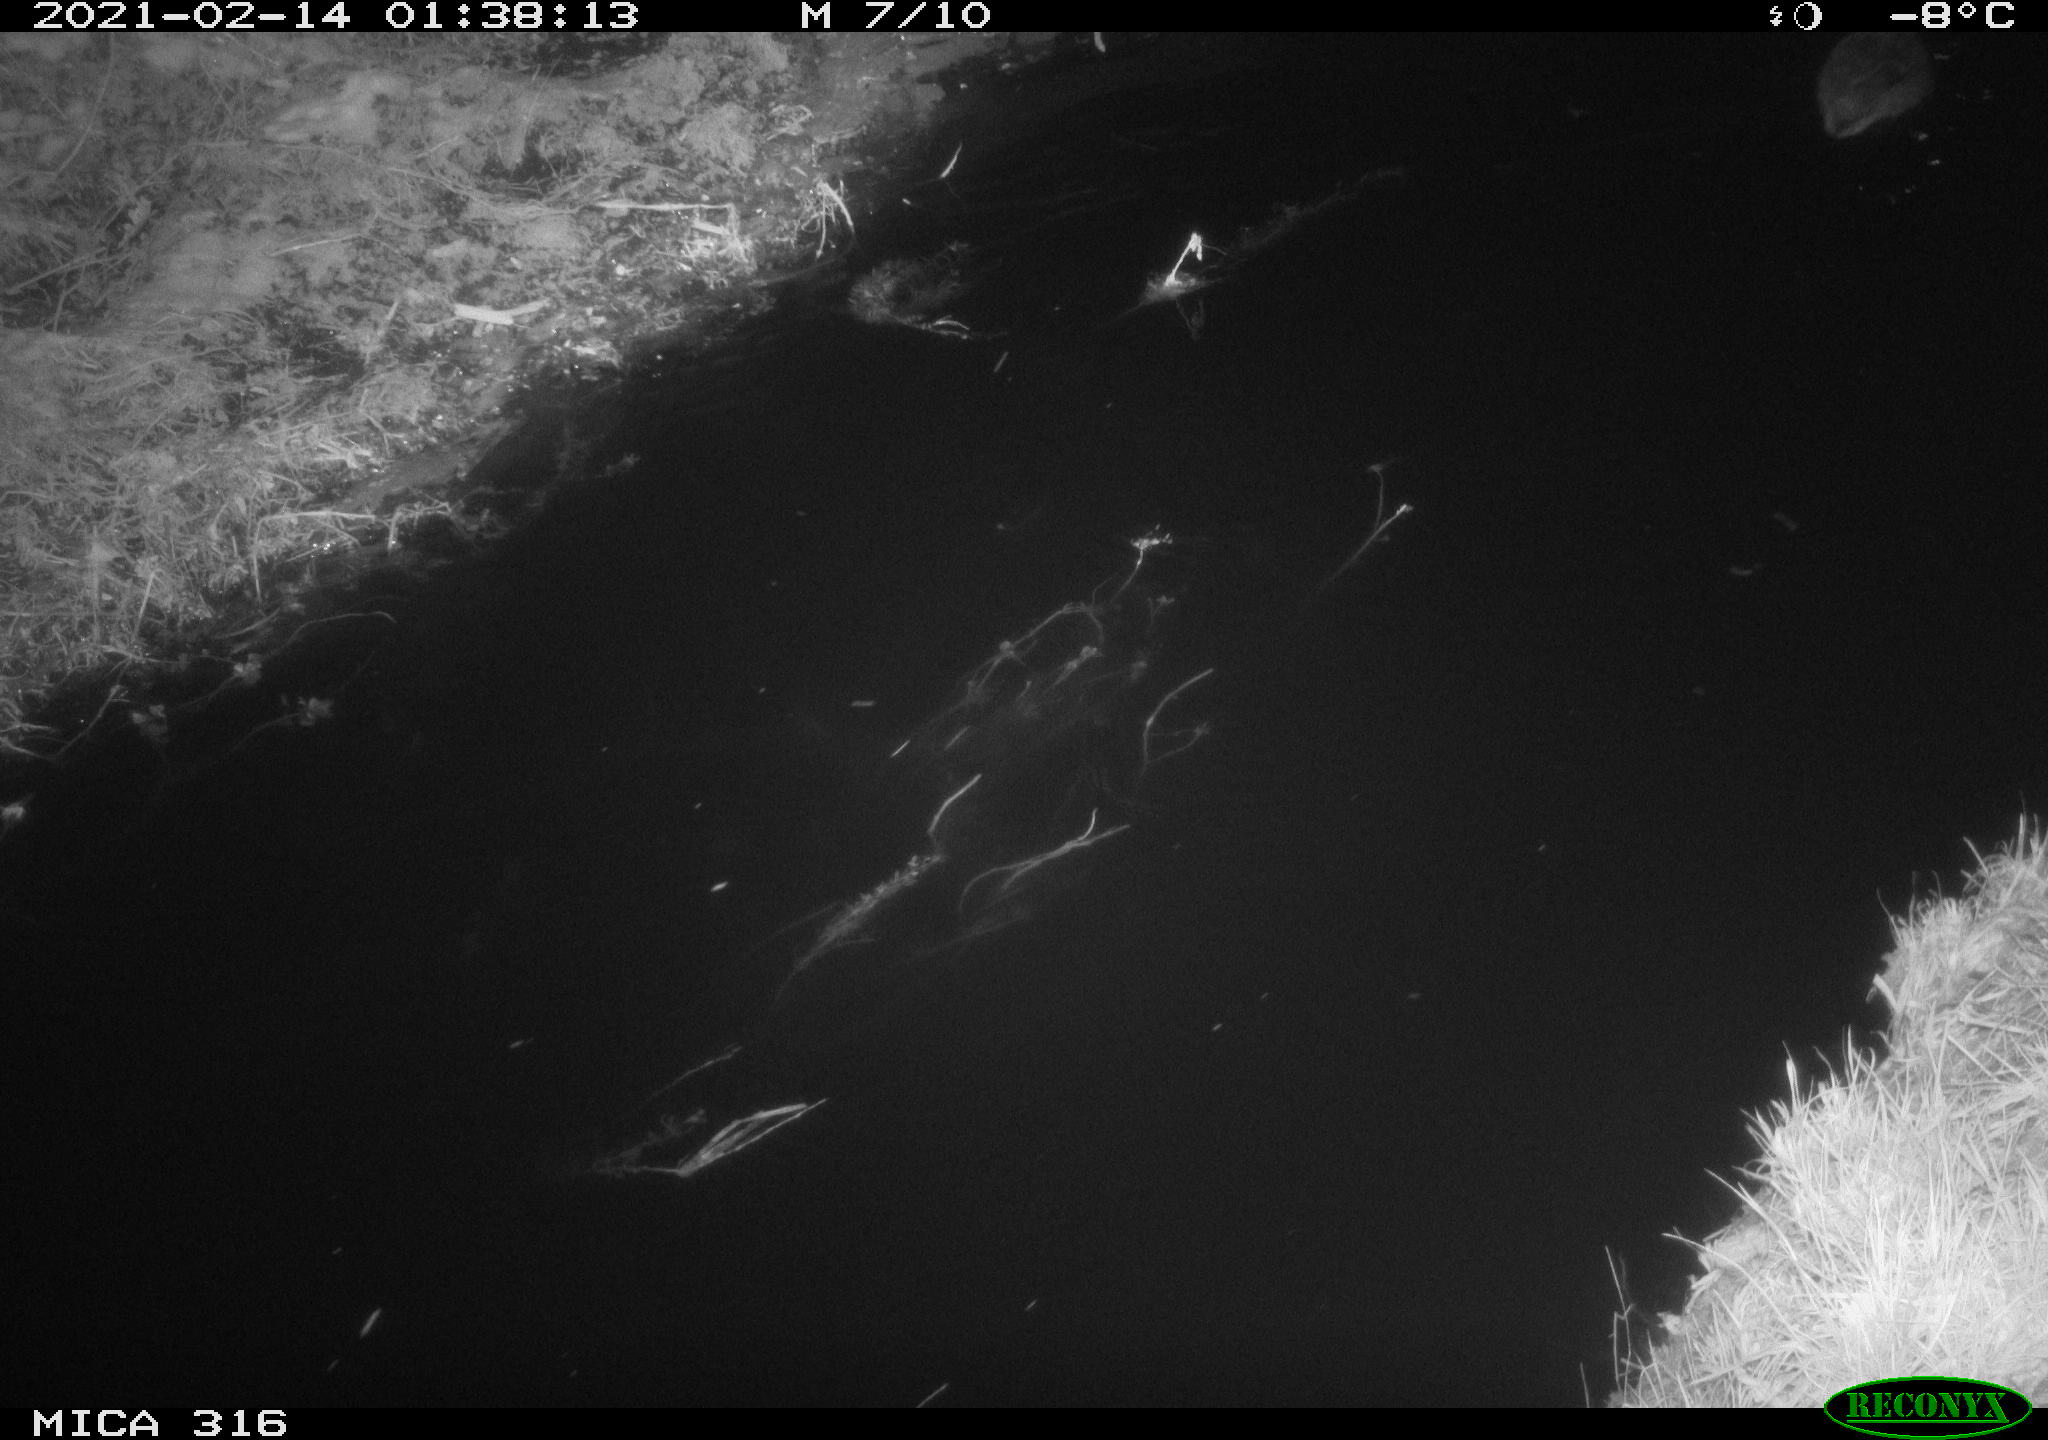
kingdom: Animalia
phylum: Chordata
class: Aves
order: Anseriformes
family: Anatidae
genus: Anas
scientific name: Anas platyrhynchos
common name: Mallard
